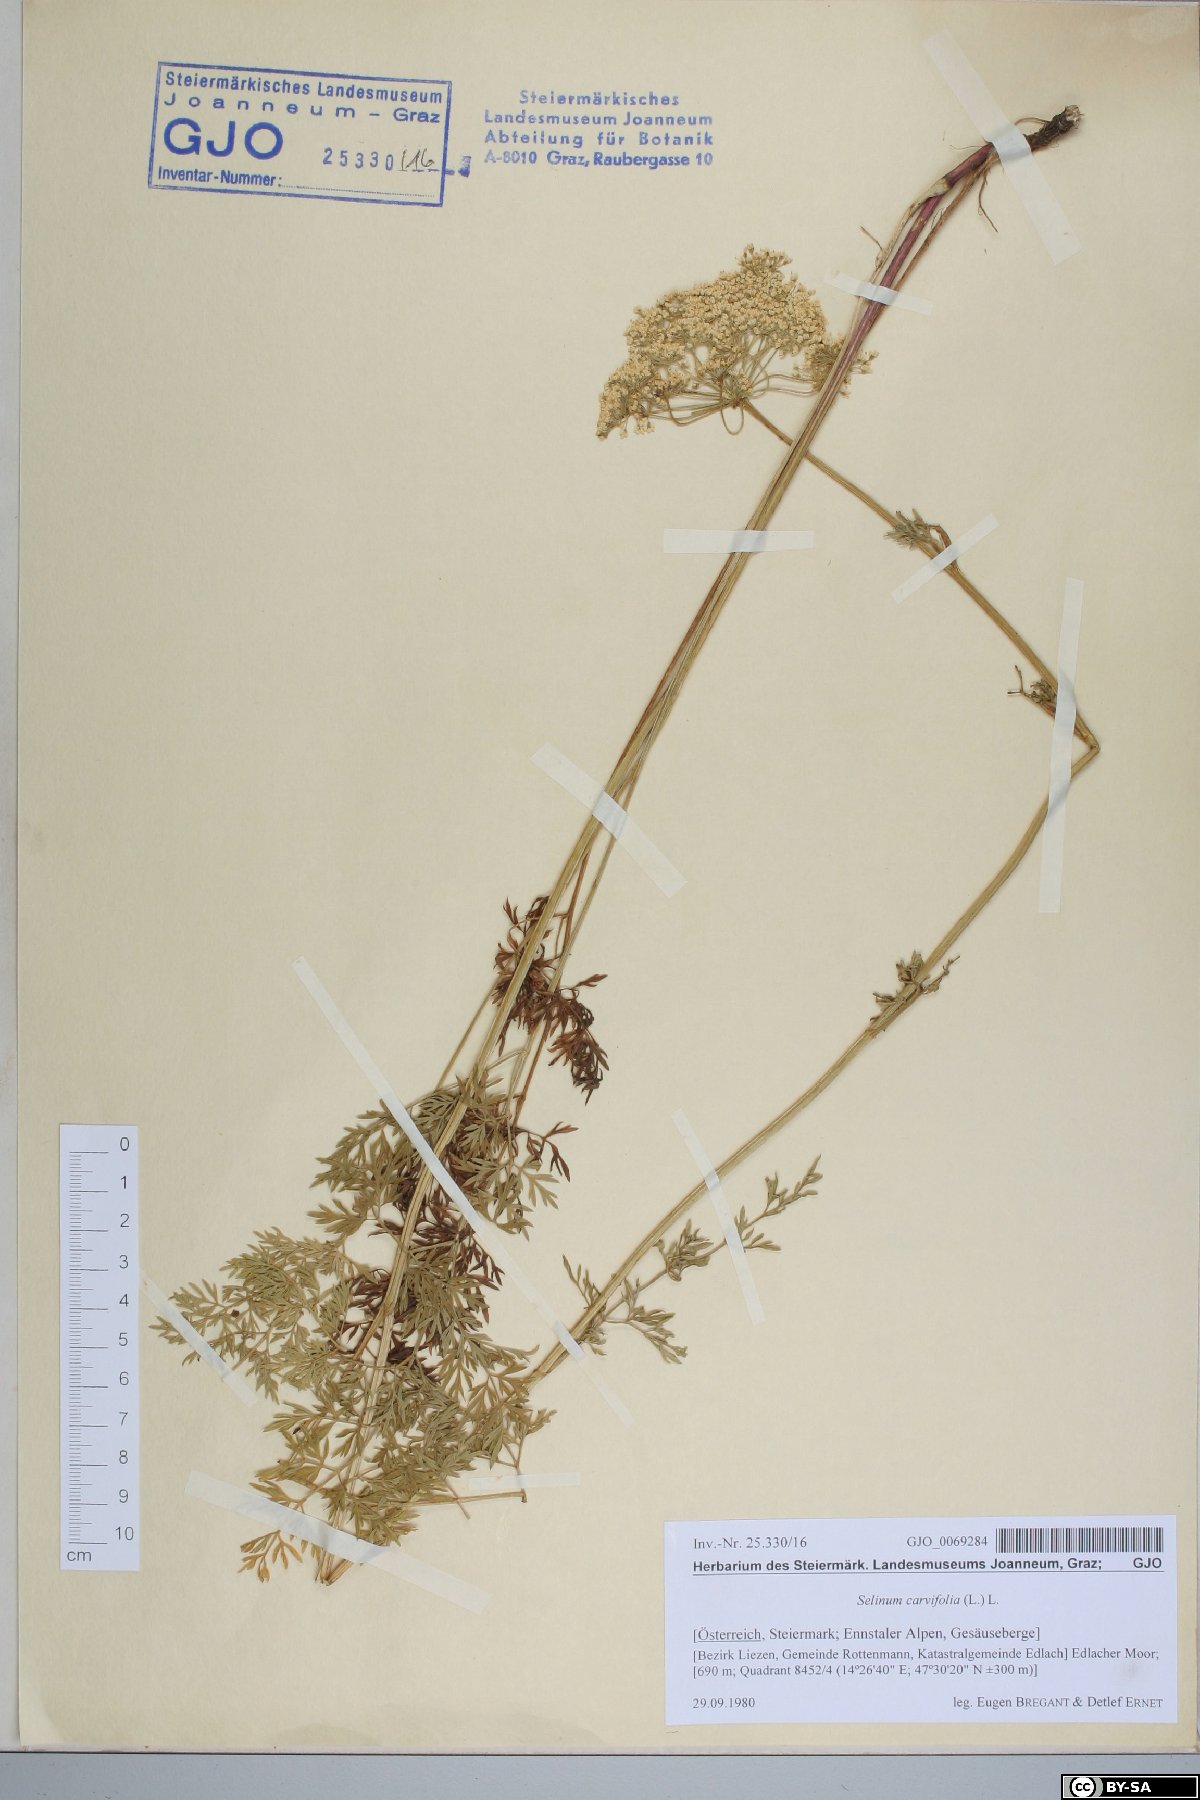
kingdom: Plantae
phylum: Tracheophyta
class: Magnoliopsida
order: Apiales
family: Apiaceae
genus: Selinum
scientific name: Selinum carvifolia
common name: Cambridge milk-parsley
